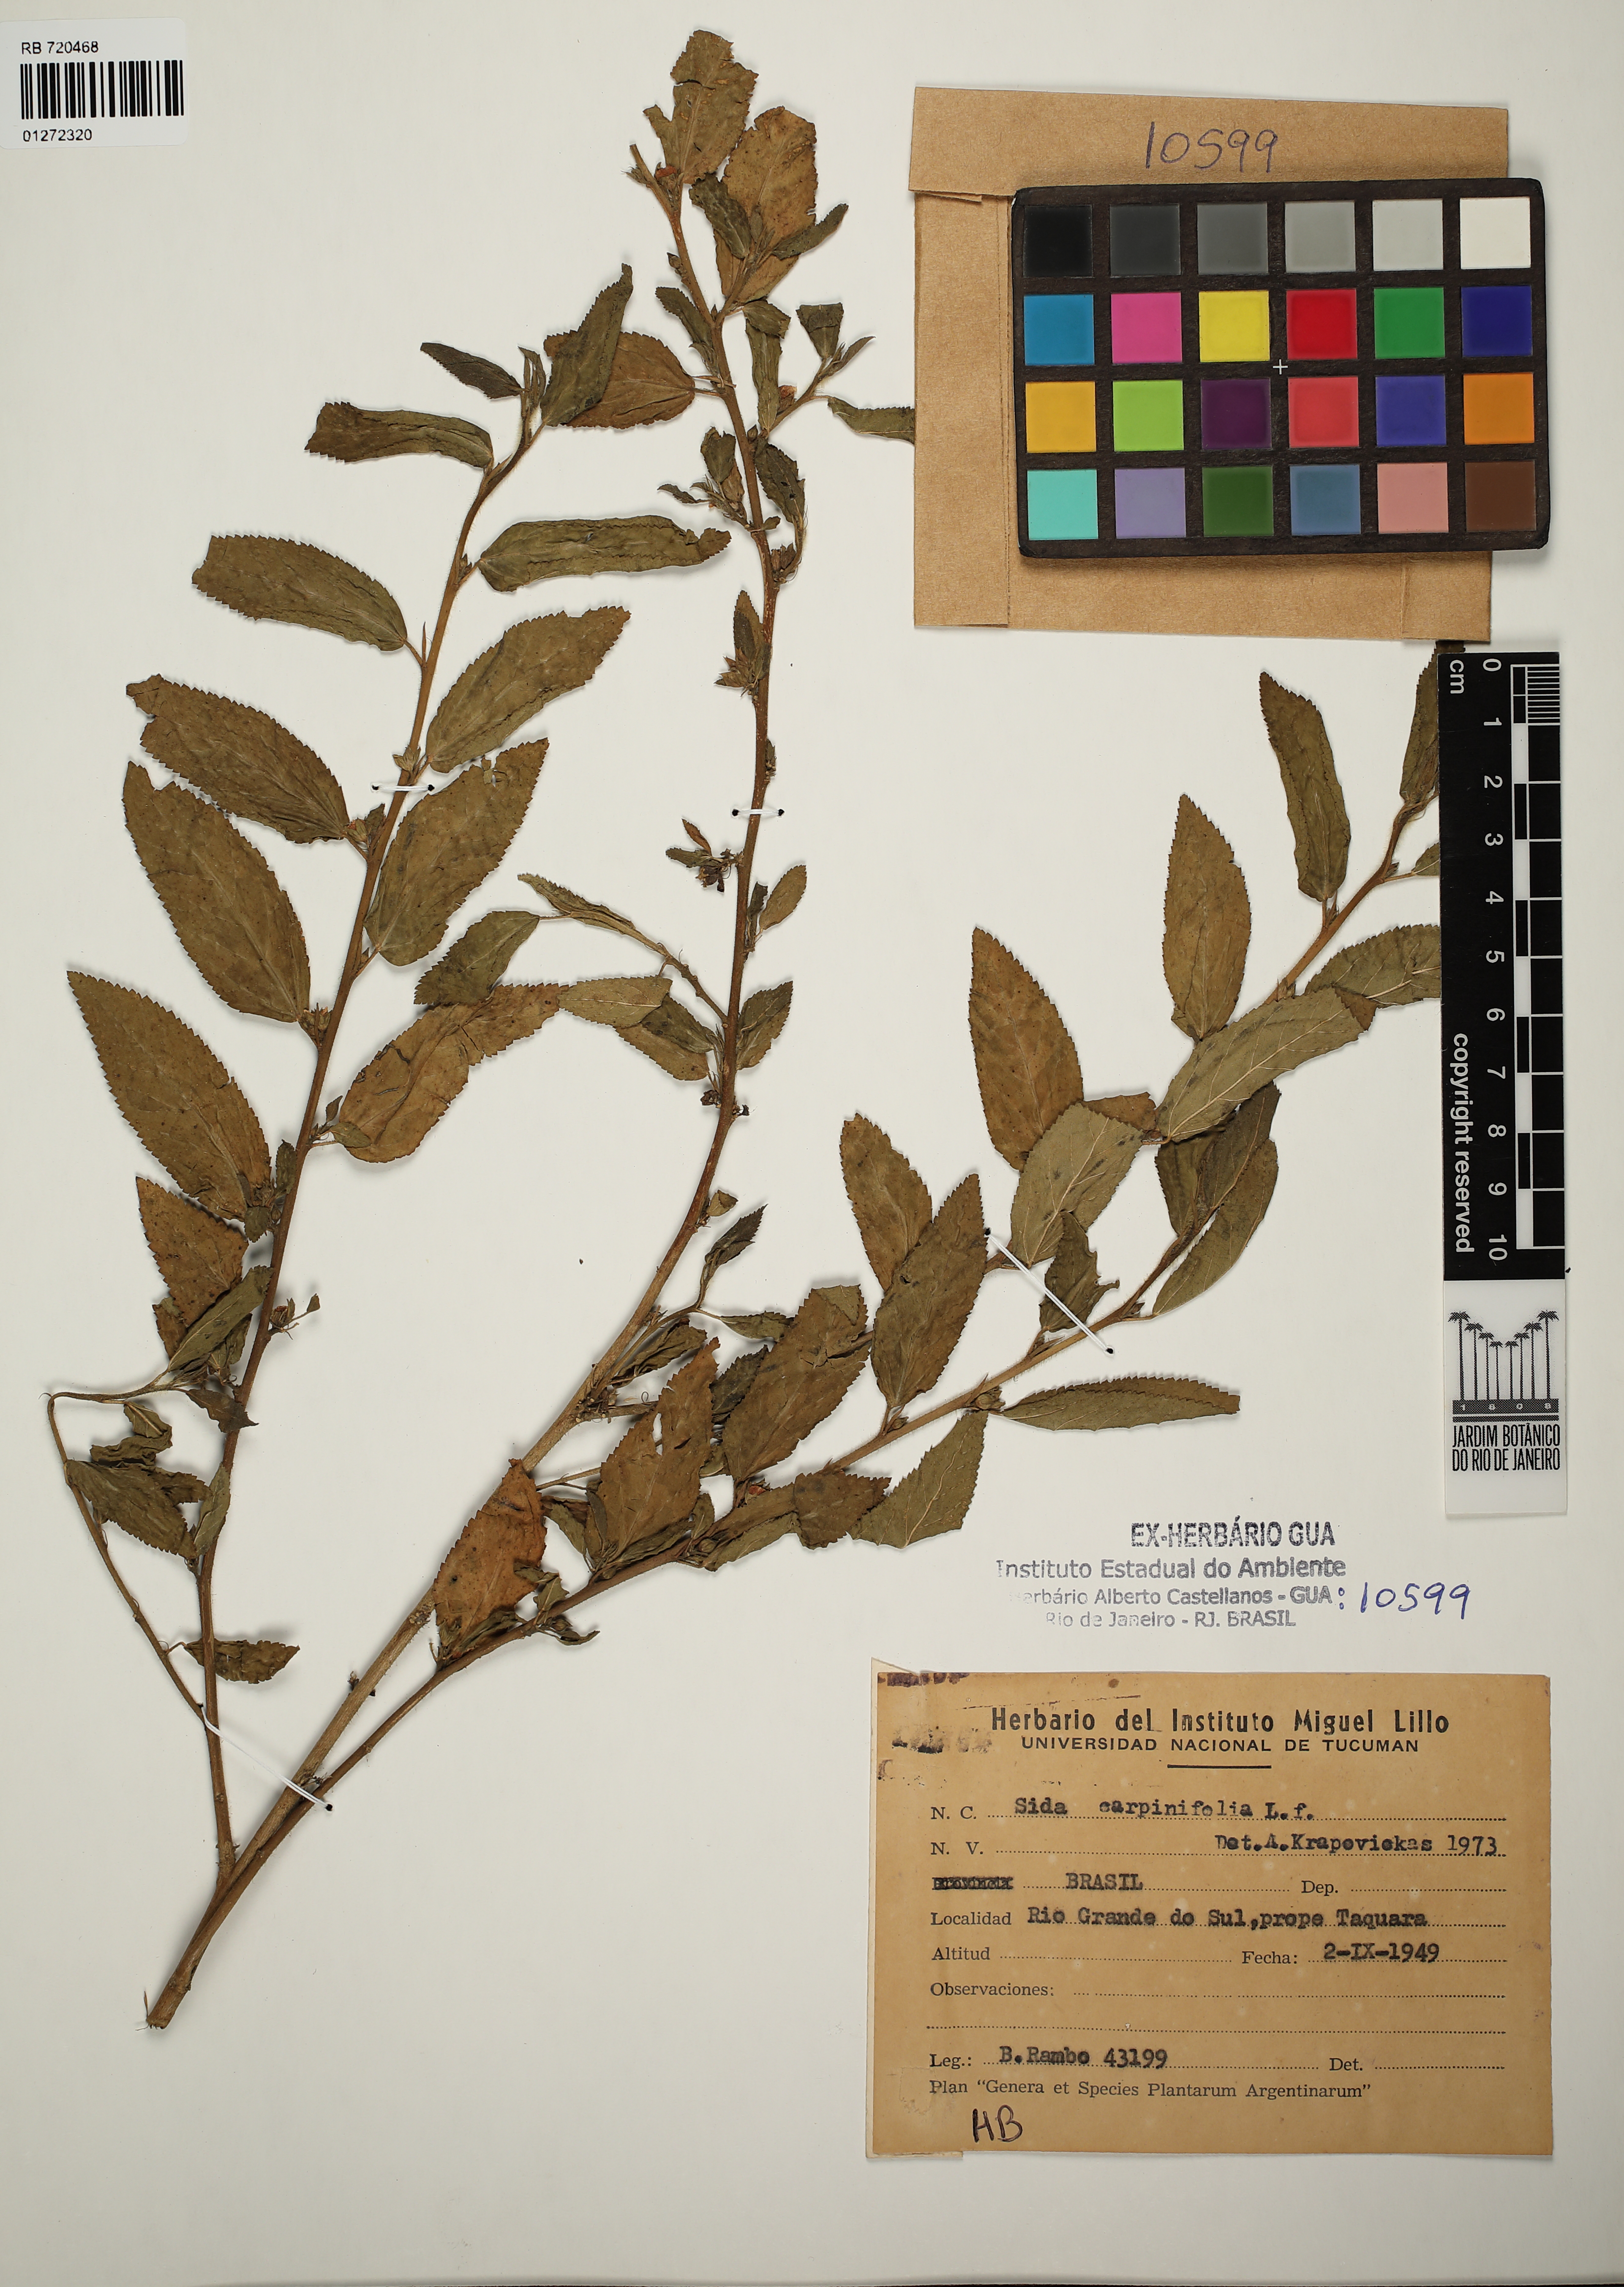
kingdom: Plantae
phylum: Tracheophyta
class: Magnoliopsida
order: Malvales
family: Malvaceae
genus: Sida
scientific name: Sida rhombifolia
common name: Queensland-hemp
